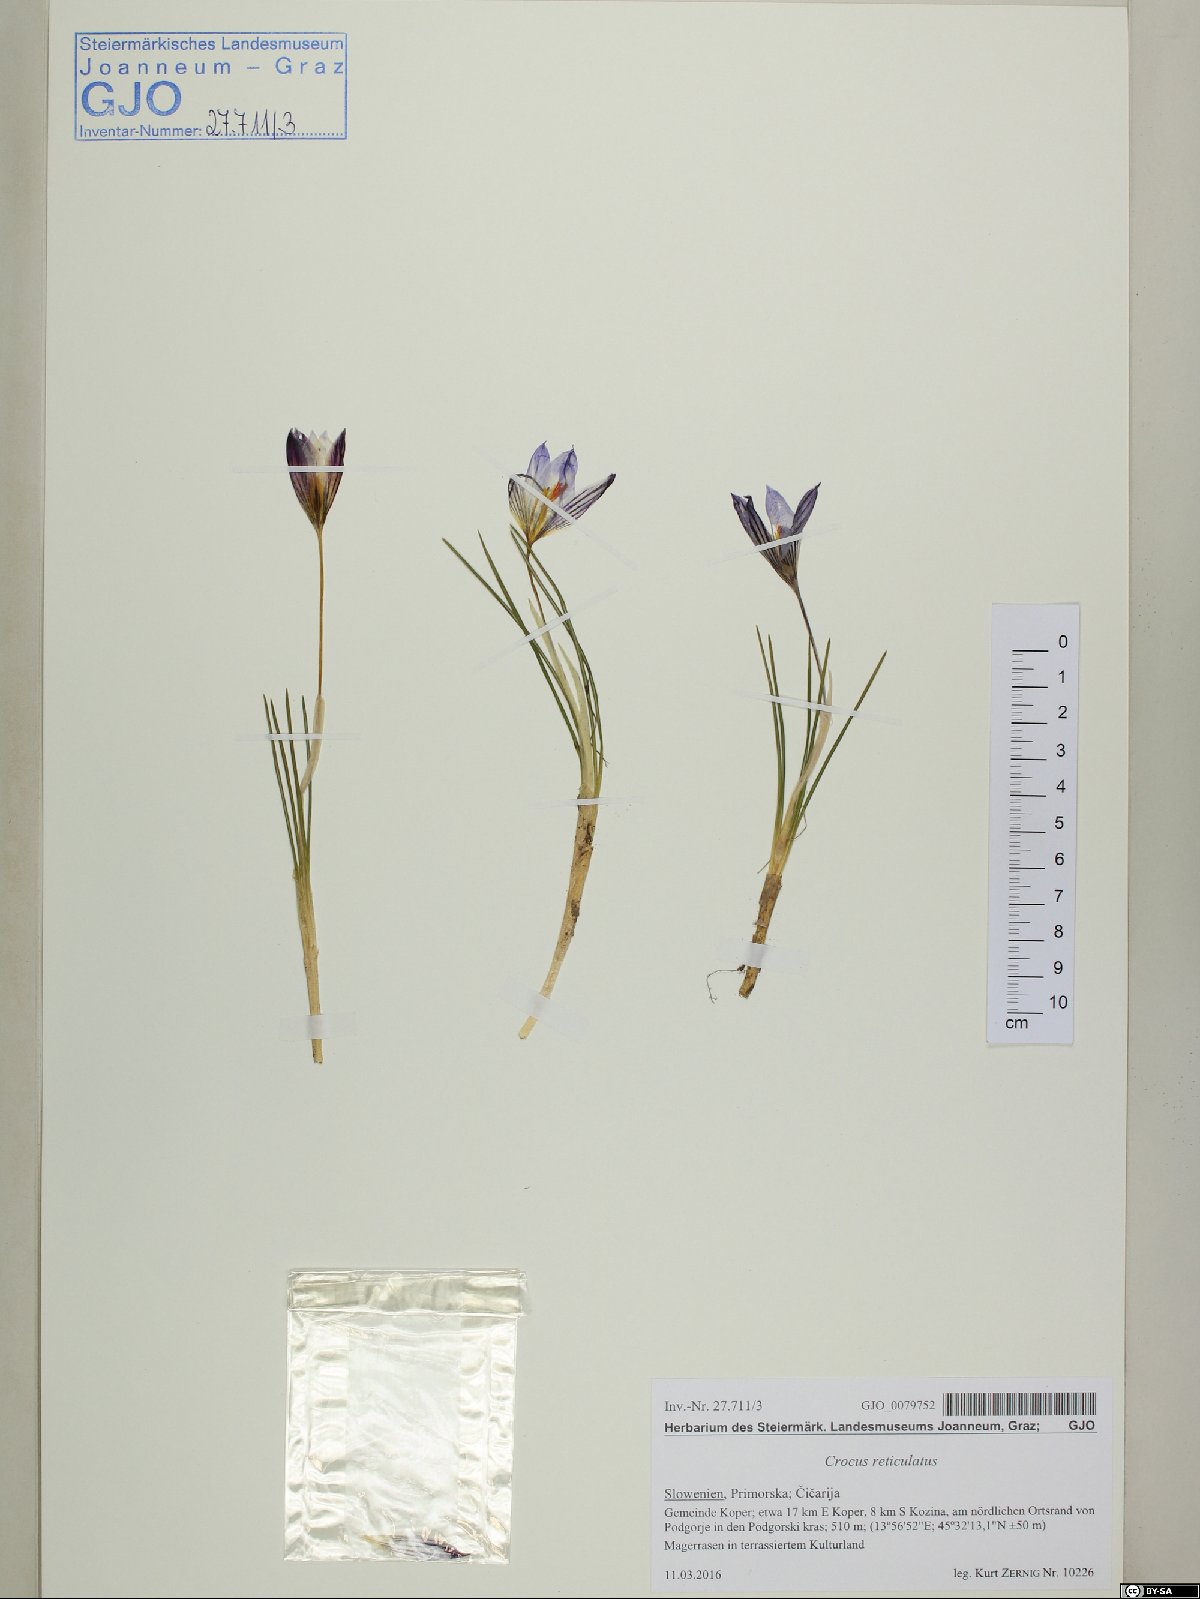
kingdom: Plantae
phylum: Tracheophyta
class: Liliopsida
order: Asparagales
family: Iridaceae
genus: Crocus
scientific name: Crocus reticulatus
